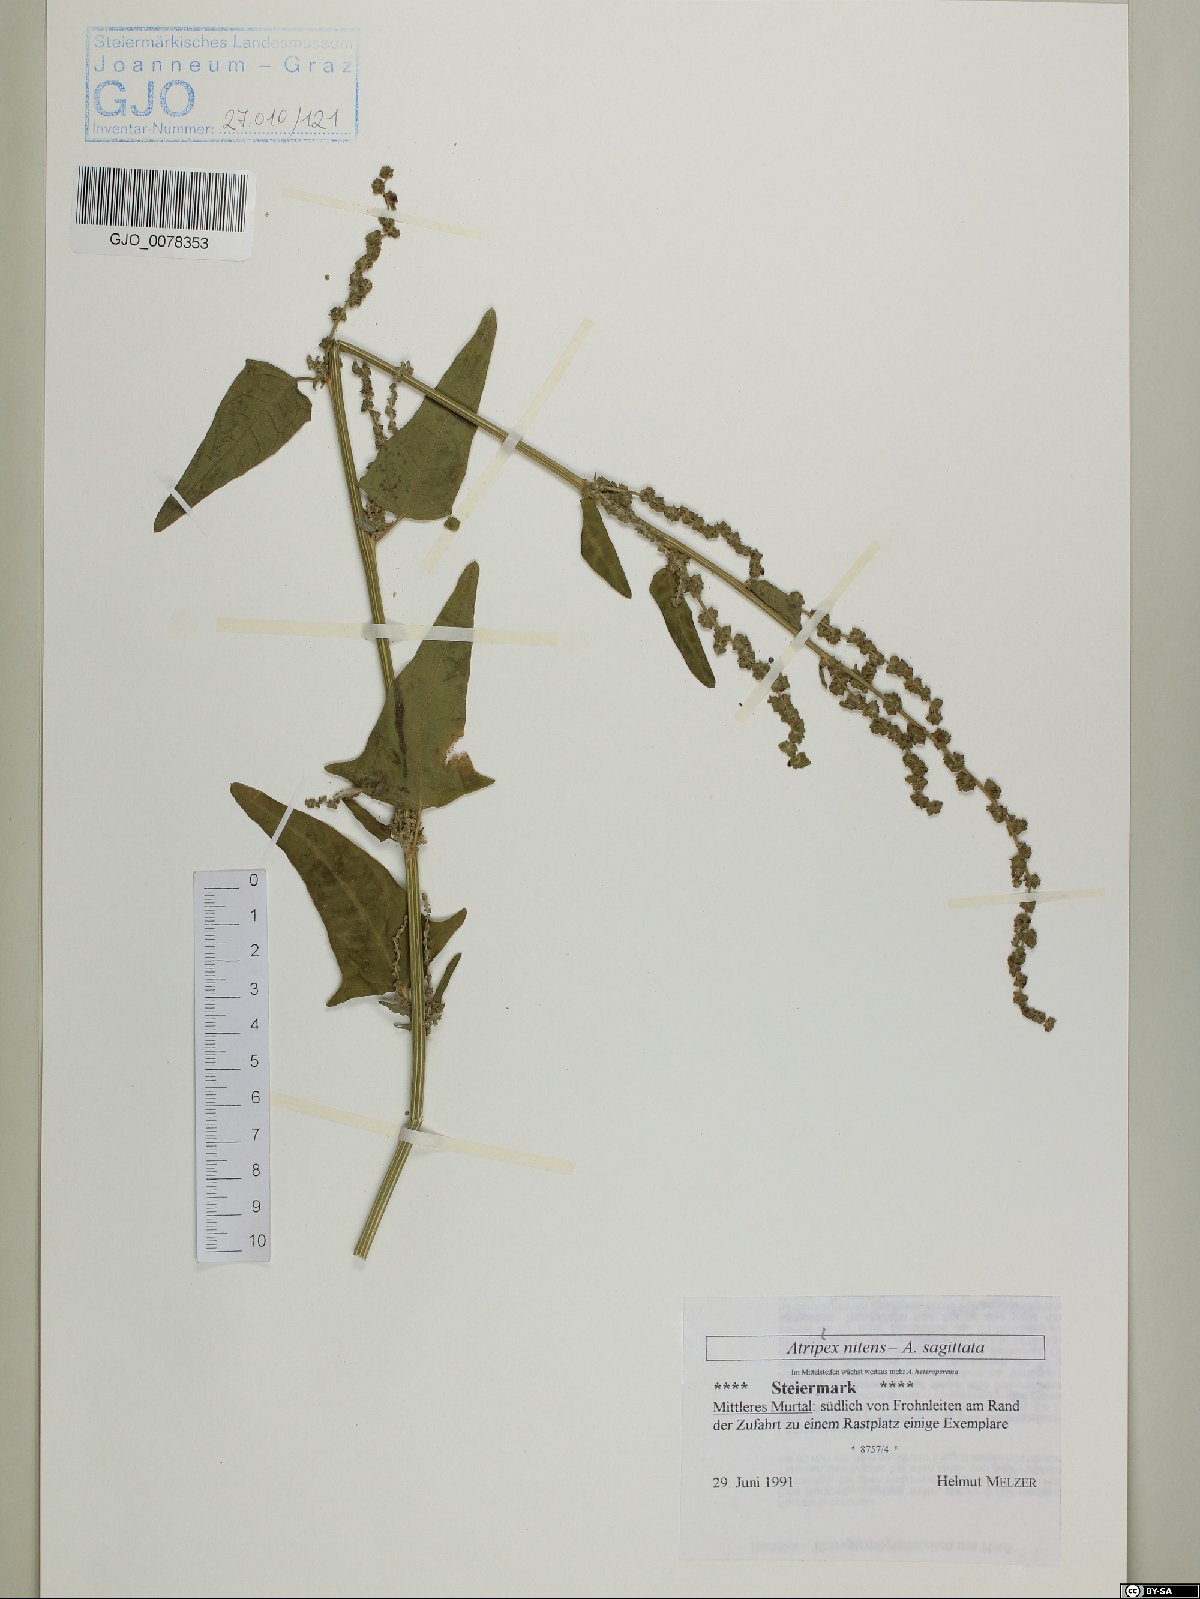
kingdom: Plantae
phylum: Tracheophyta
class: Magnoliopsida
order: Caryophyllales
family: Amaranthaceae
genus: Atriplex
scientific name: Atriplex sagittata
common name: Purple orache
